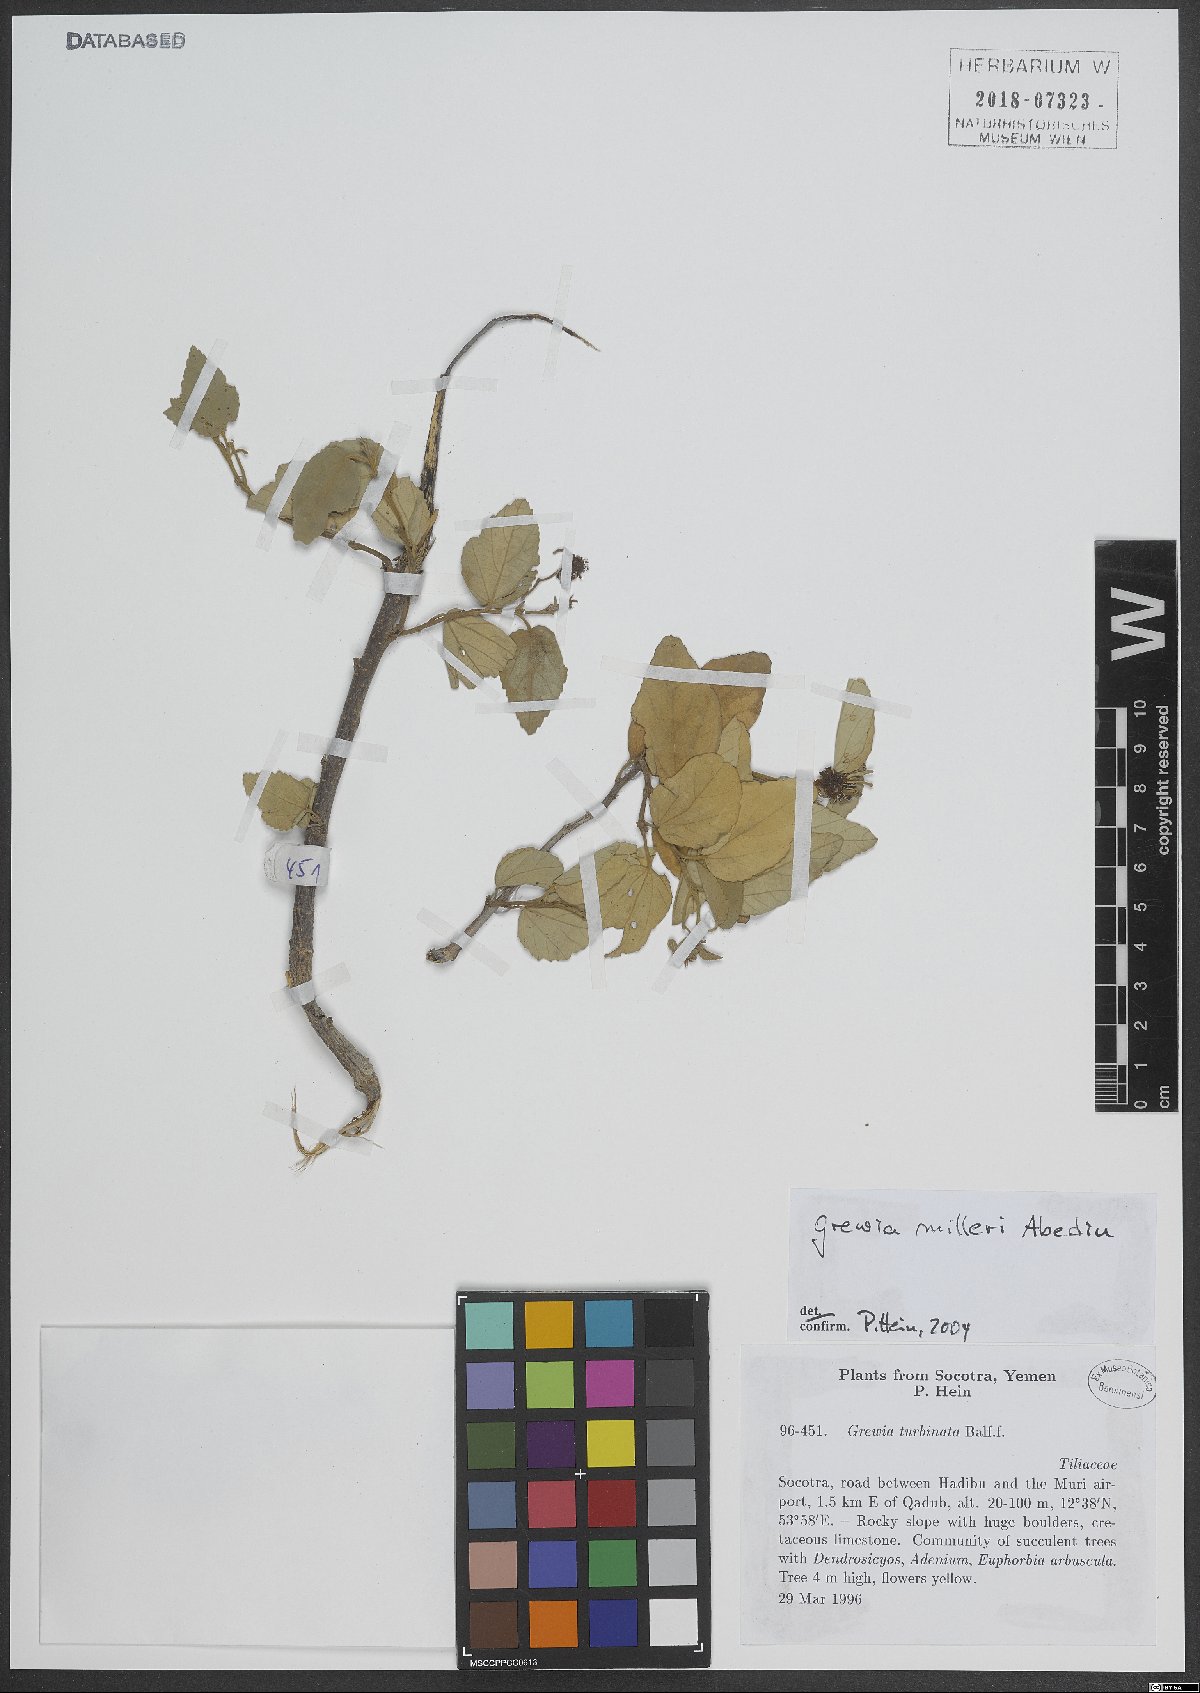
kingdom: Plantae
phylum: Tracheophyta
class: Magnoliopsida
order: Malvales
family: Malvaceae
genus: Grewia
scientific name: Grewia milleri
